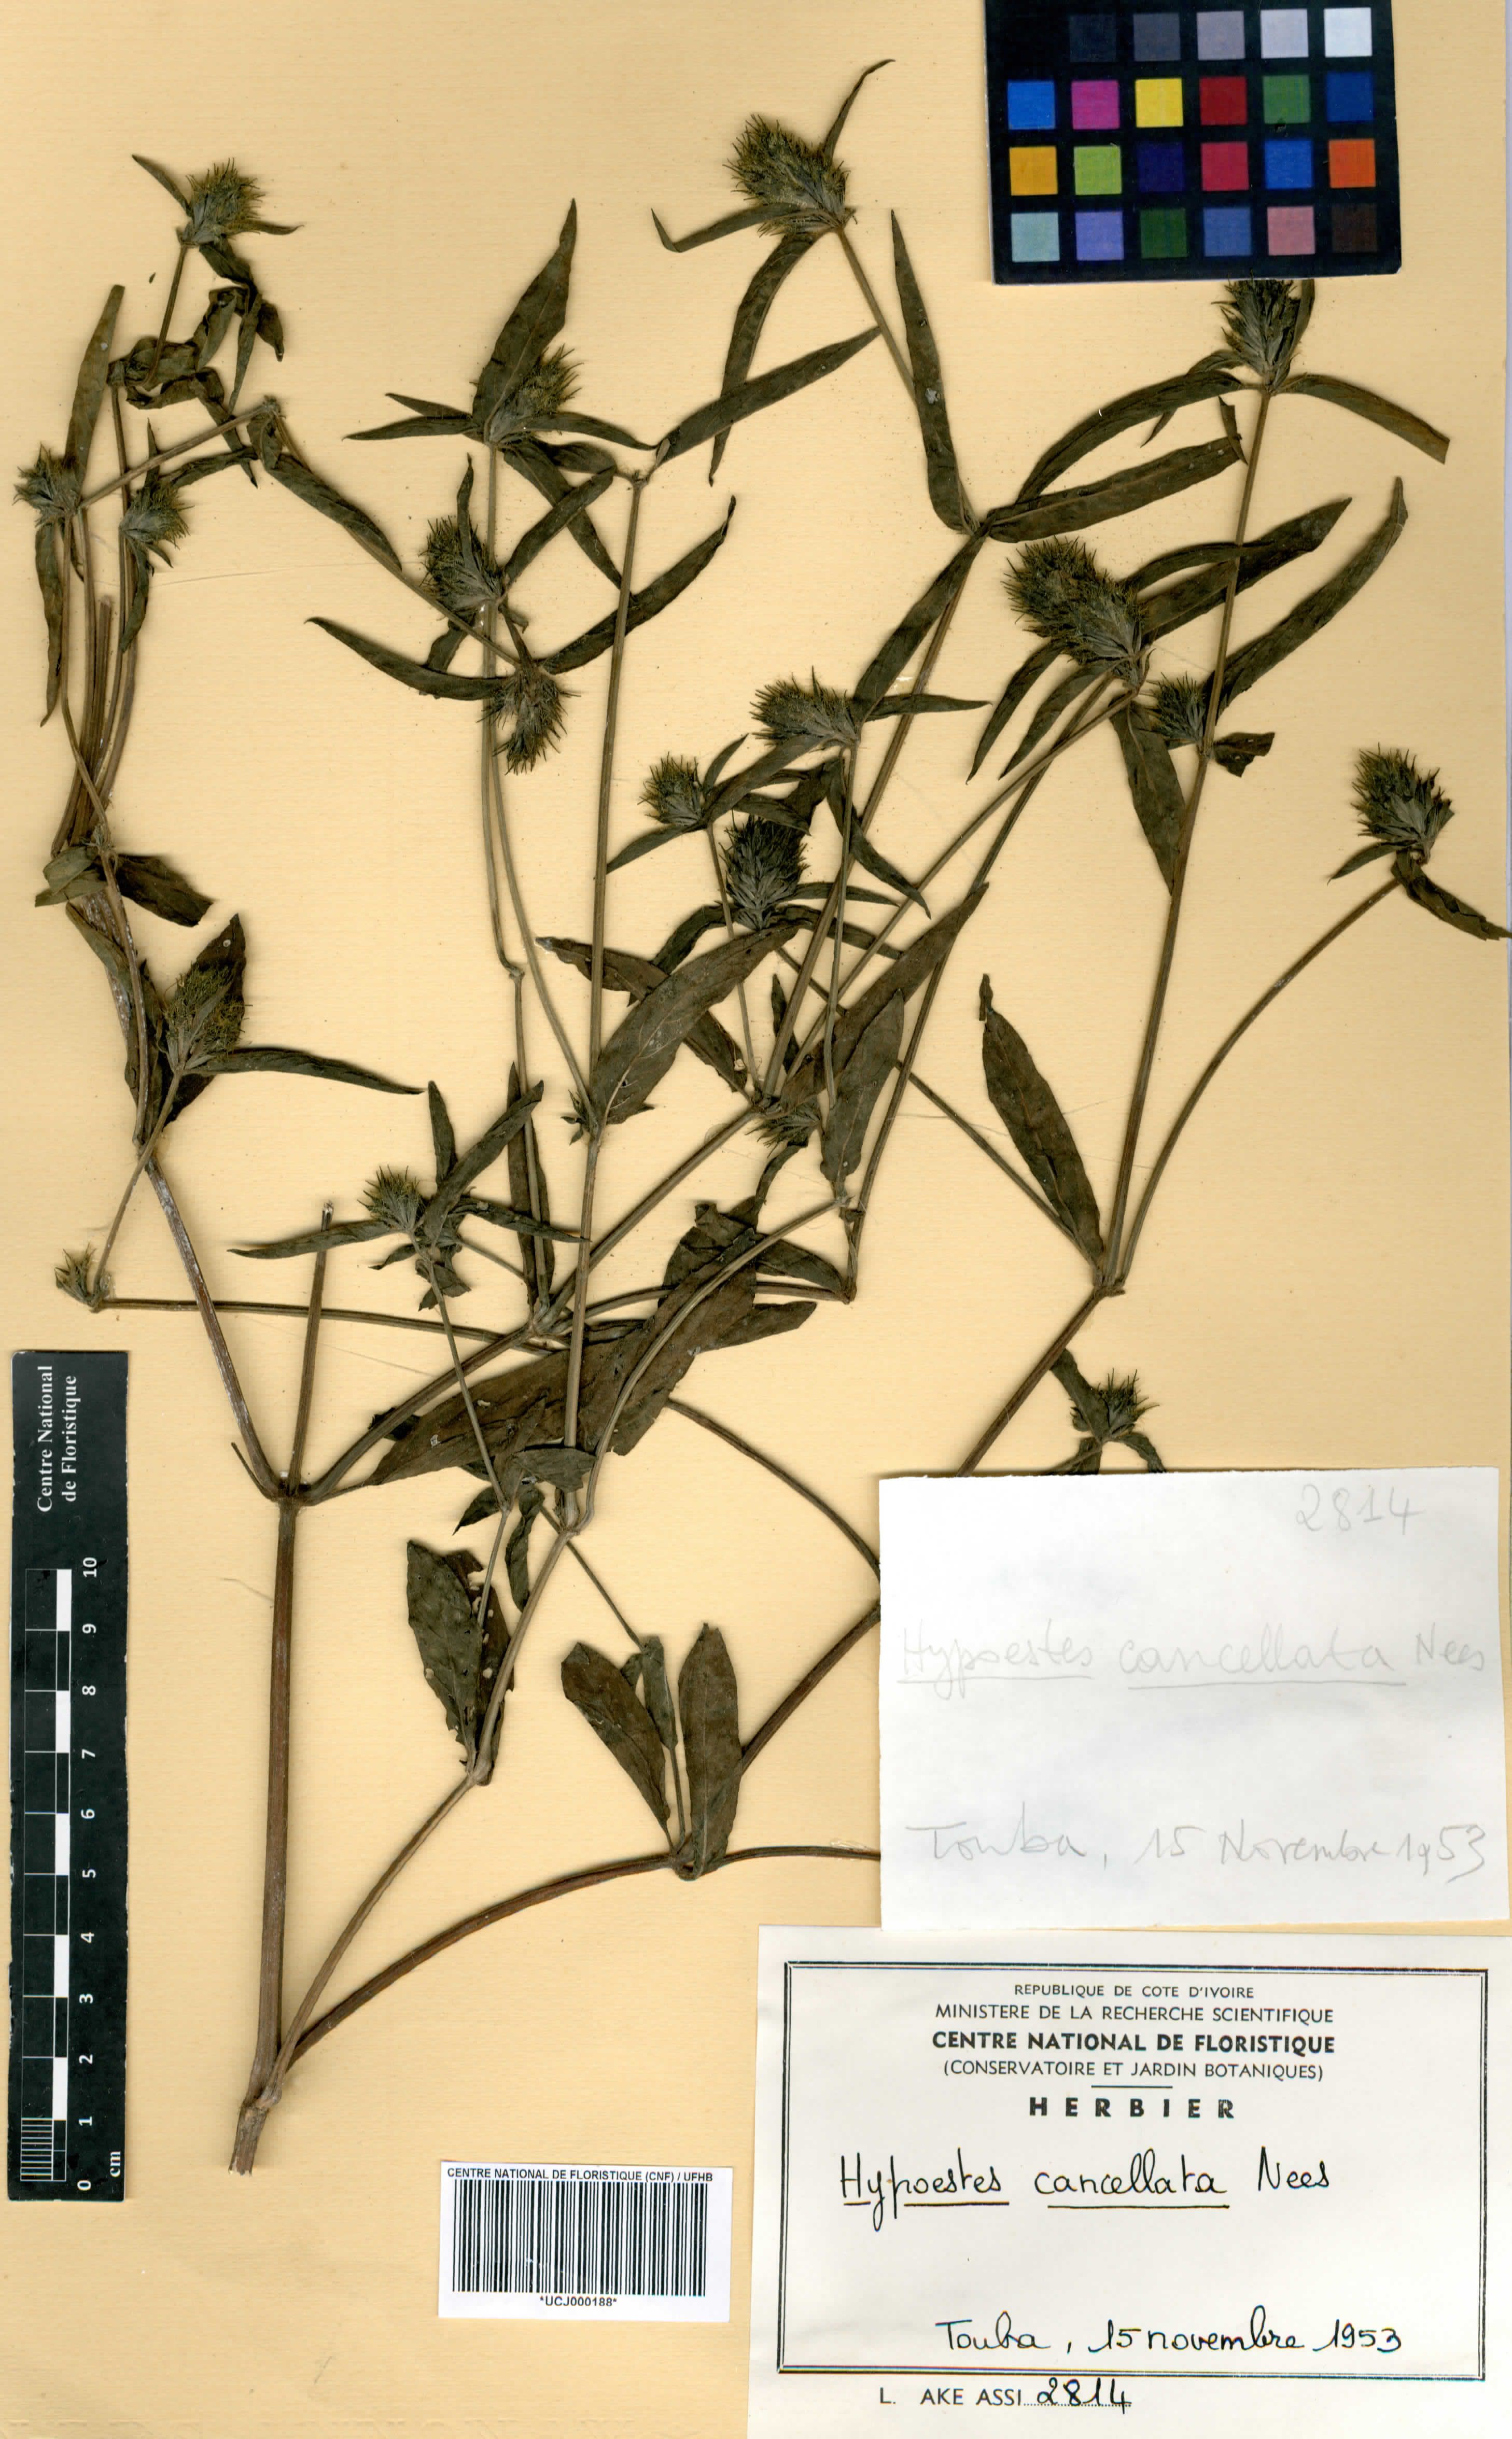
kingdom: Plantae
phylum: Tracheophyta
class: Magnoliopsida
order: Lamiales
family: Acanthaceae
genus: Hypoestes
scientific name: Hypoestes cancellata
